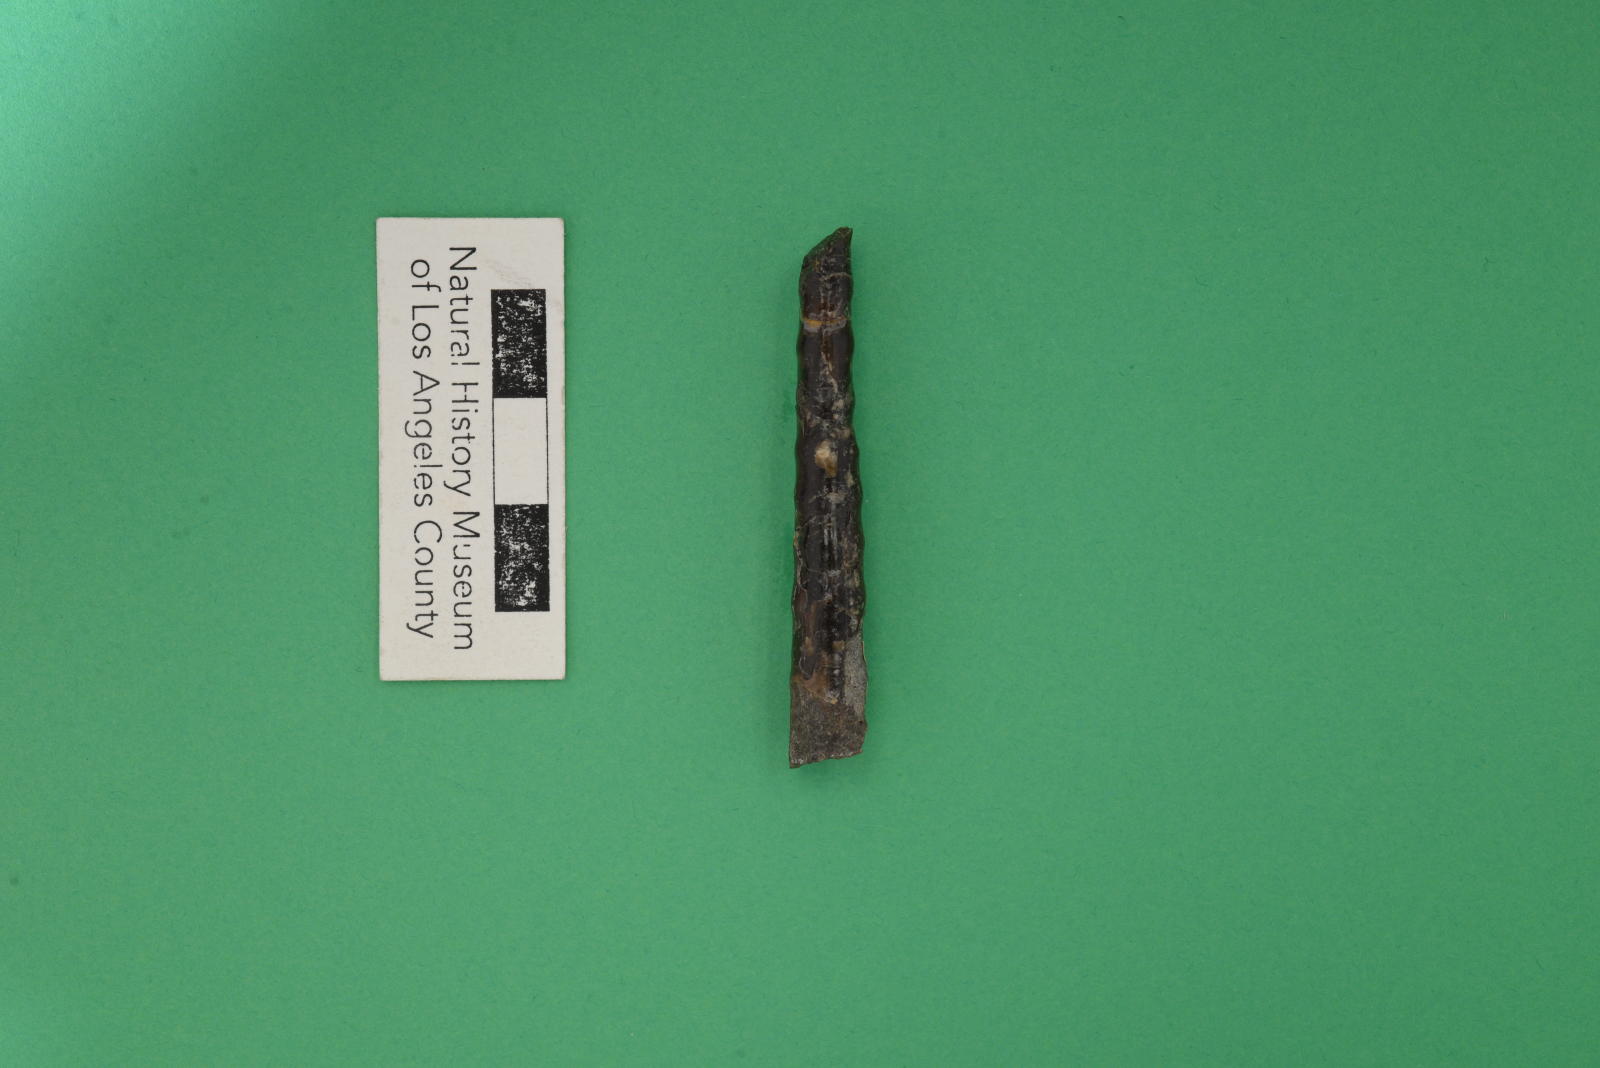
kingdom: Animalia
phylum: Mollusca
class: Cephalopoda
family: Baculitidae
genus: Baculites
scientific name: Baculites schencki
